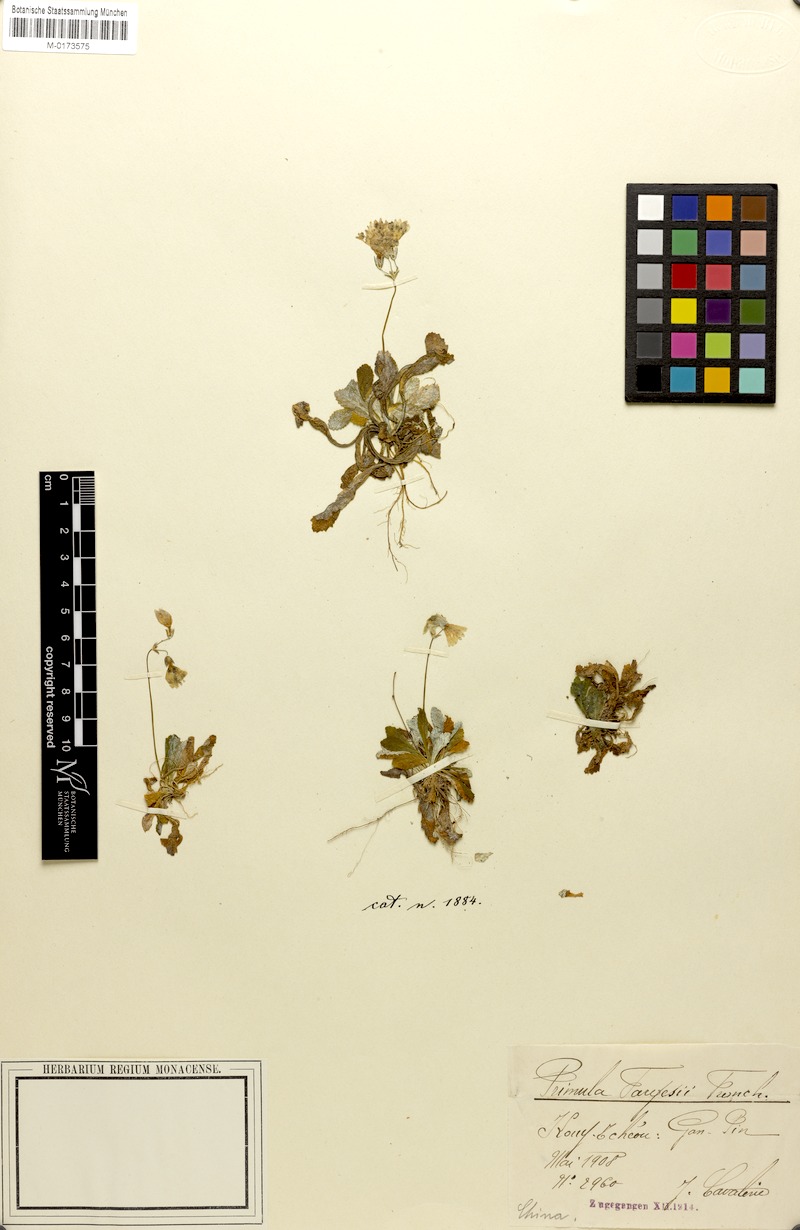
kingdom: Plantae
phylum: Tracheophyta
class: Magnoliopsida
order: Ericales
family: Primulaceae
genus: Primula
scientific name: Primula nutantiflora
